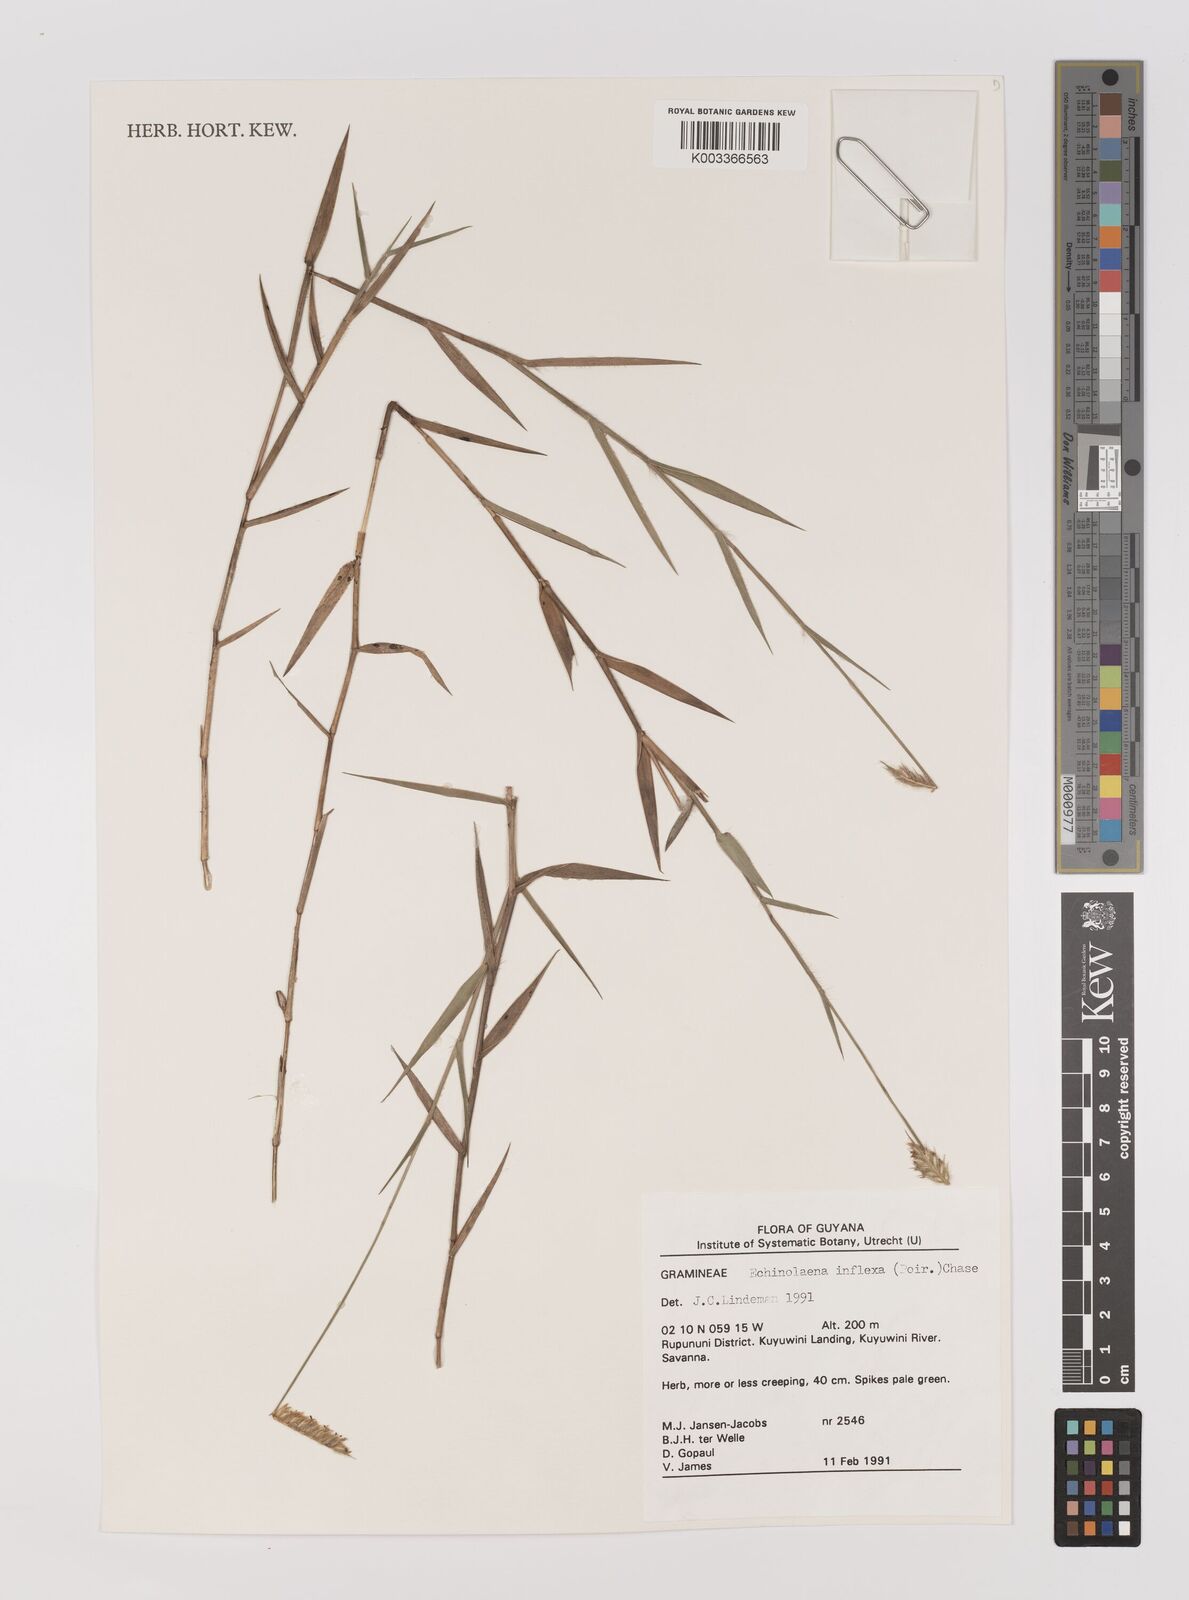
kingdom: Plantae
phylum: Tracheophyta
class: Liliopsida
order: Poales
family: Poaceae
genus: Echinolaena
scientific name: Echinolaena inflexa
